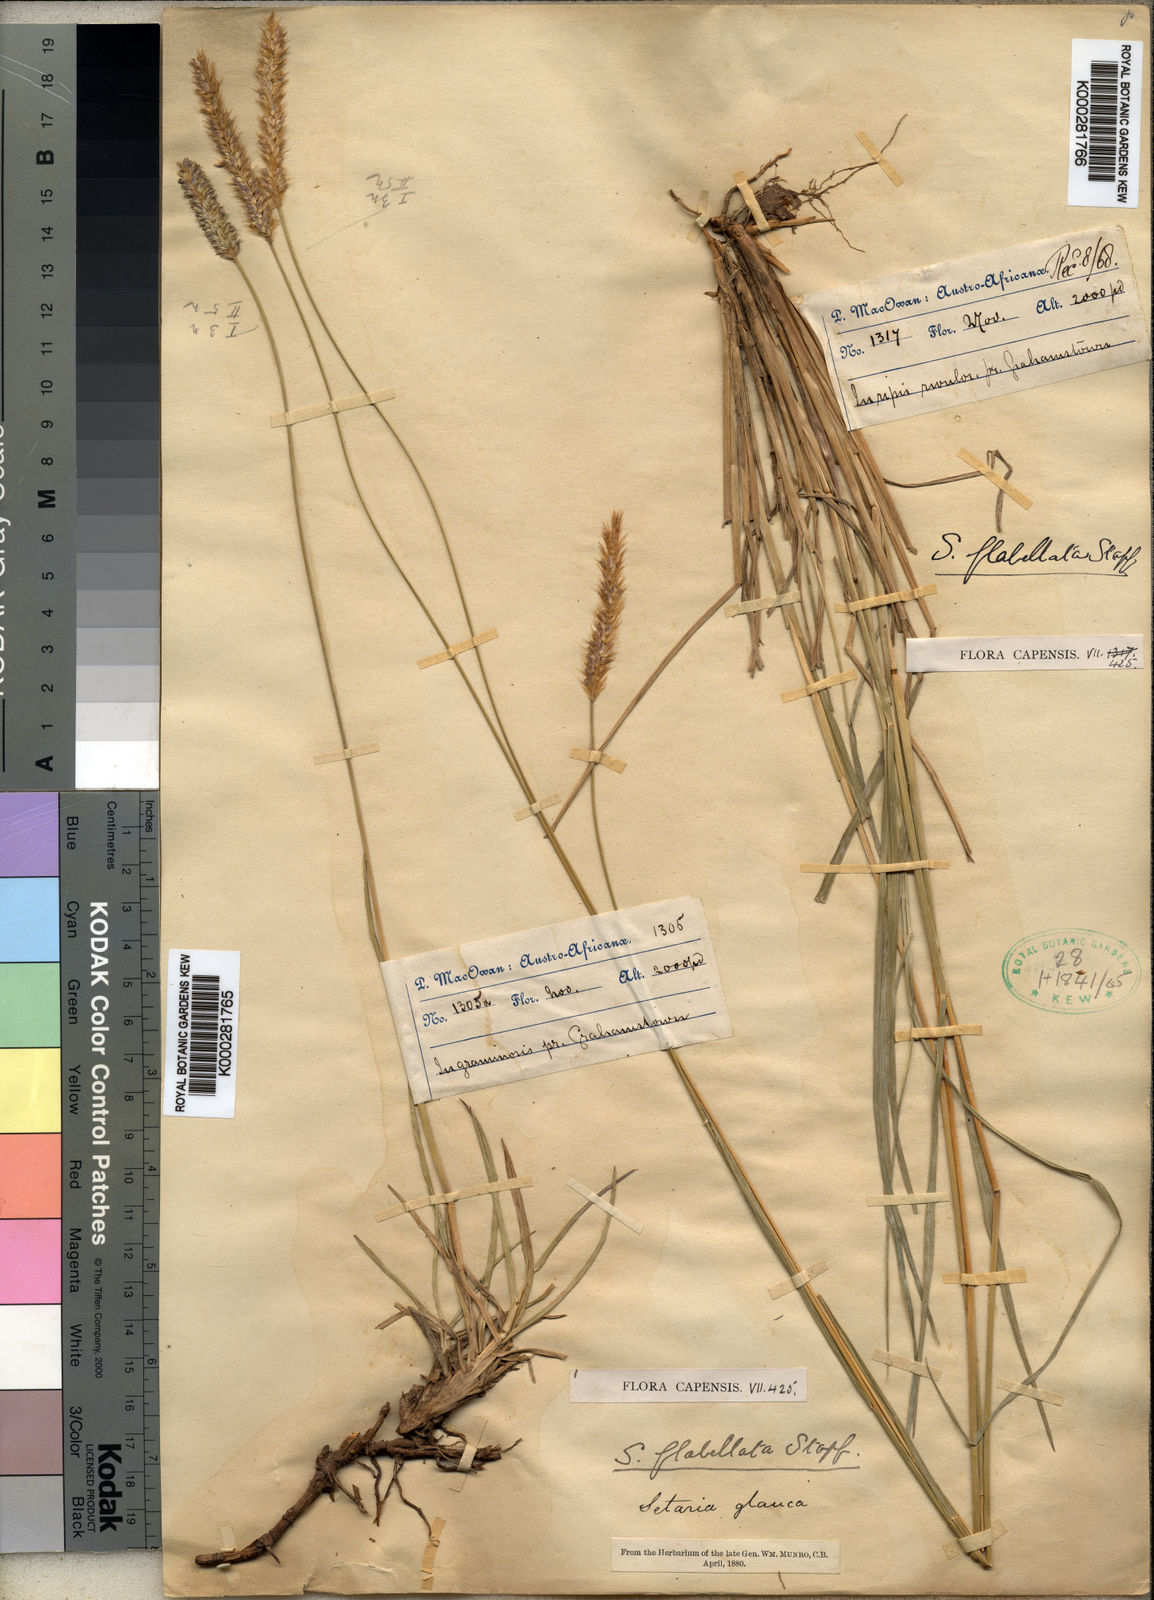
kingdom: Plantae
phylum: Tracheophyta
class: Liliopsida
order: Poales
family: Poaceae
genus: Setaria
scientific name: Setaria sphacelata
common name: African bristlegrass
